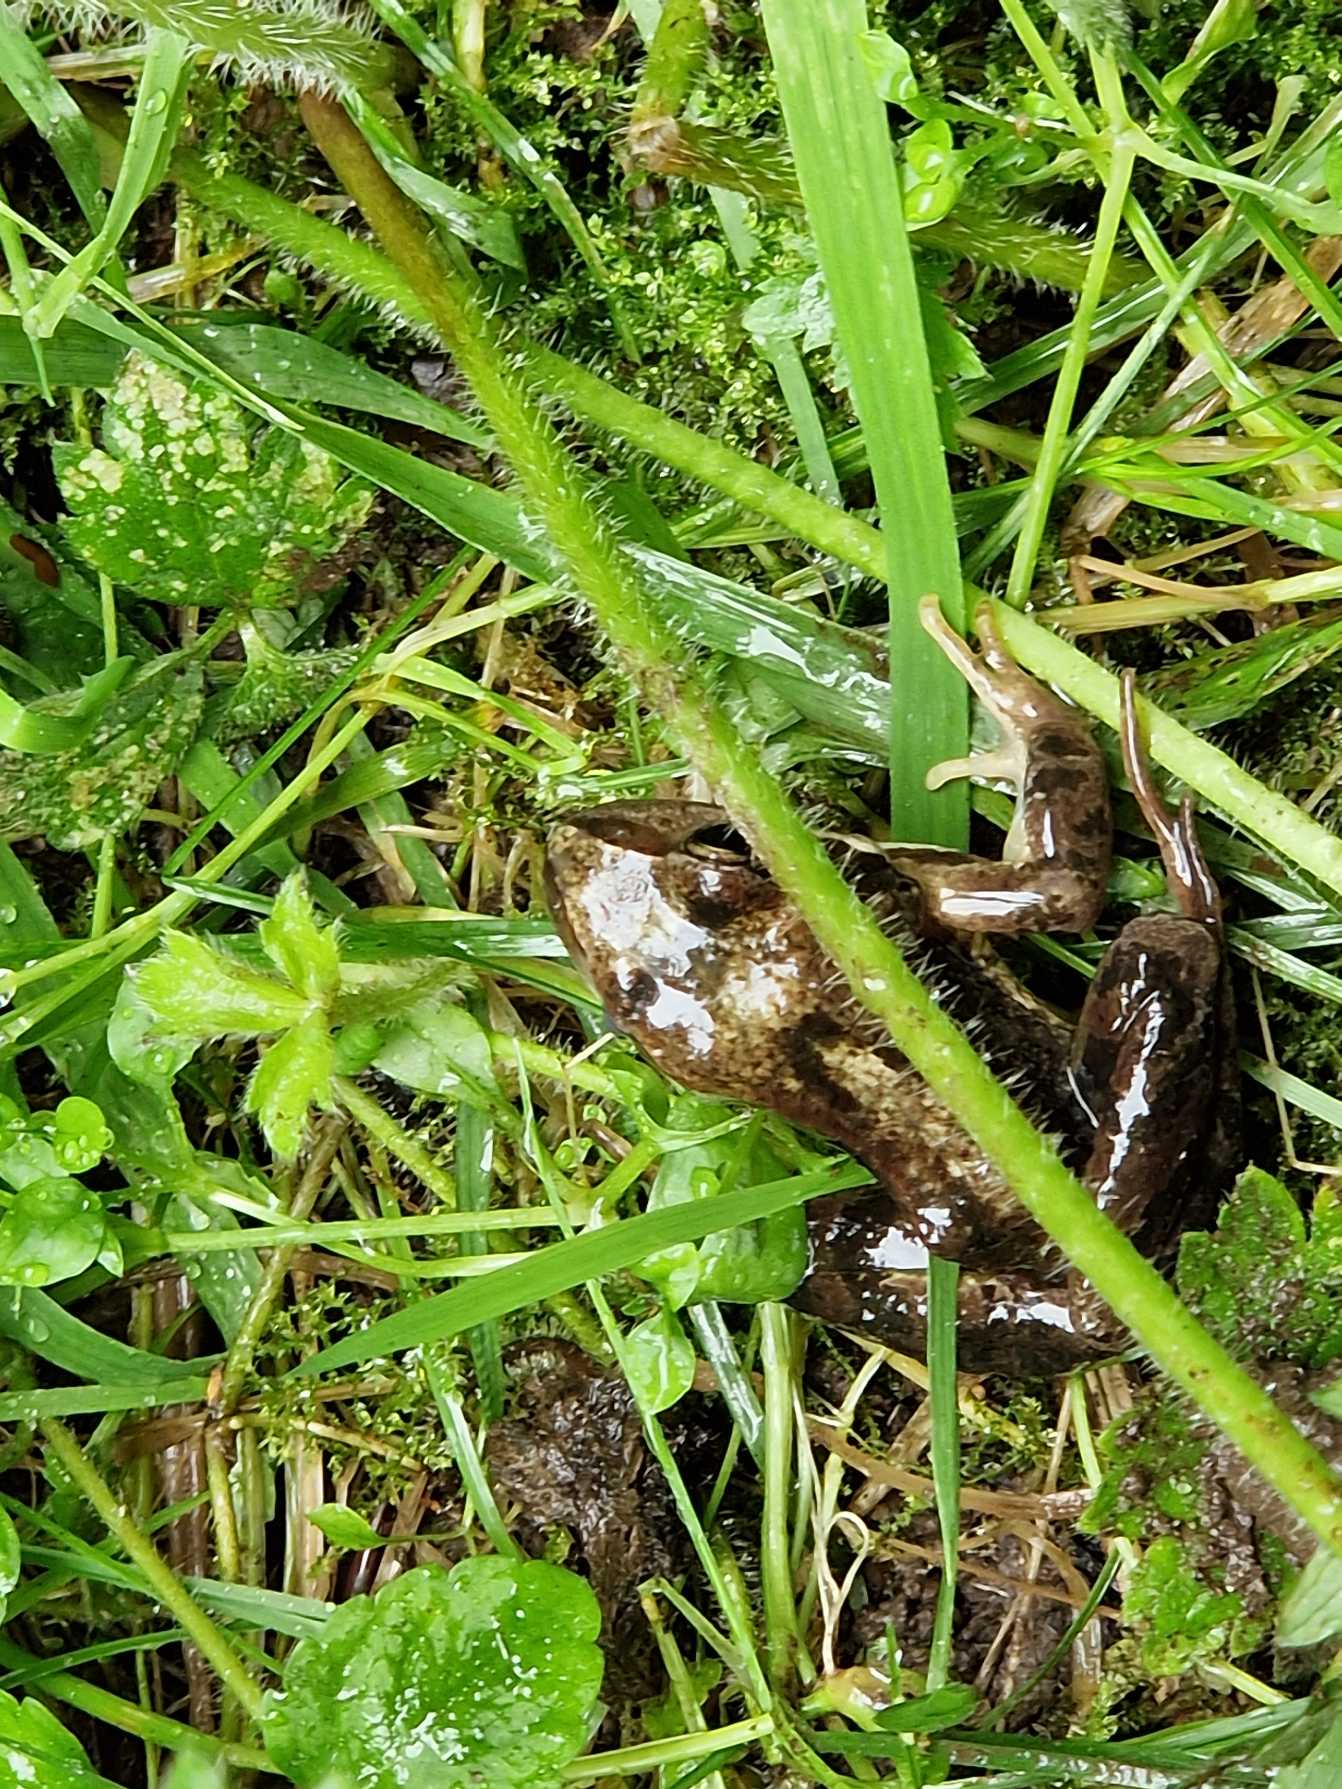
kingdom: Animalia
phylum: Chordata
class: Amphibia
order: Anura
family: Ranidae
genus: Rana
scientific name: Rana temporaria
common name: Butsnudet frø
